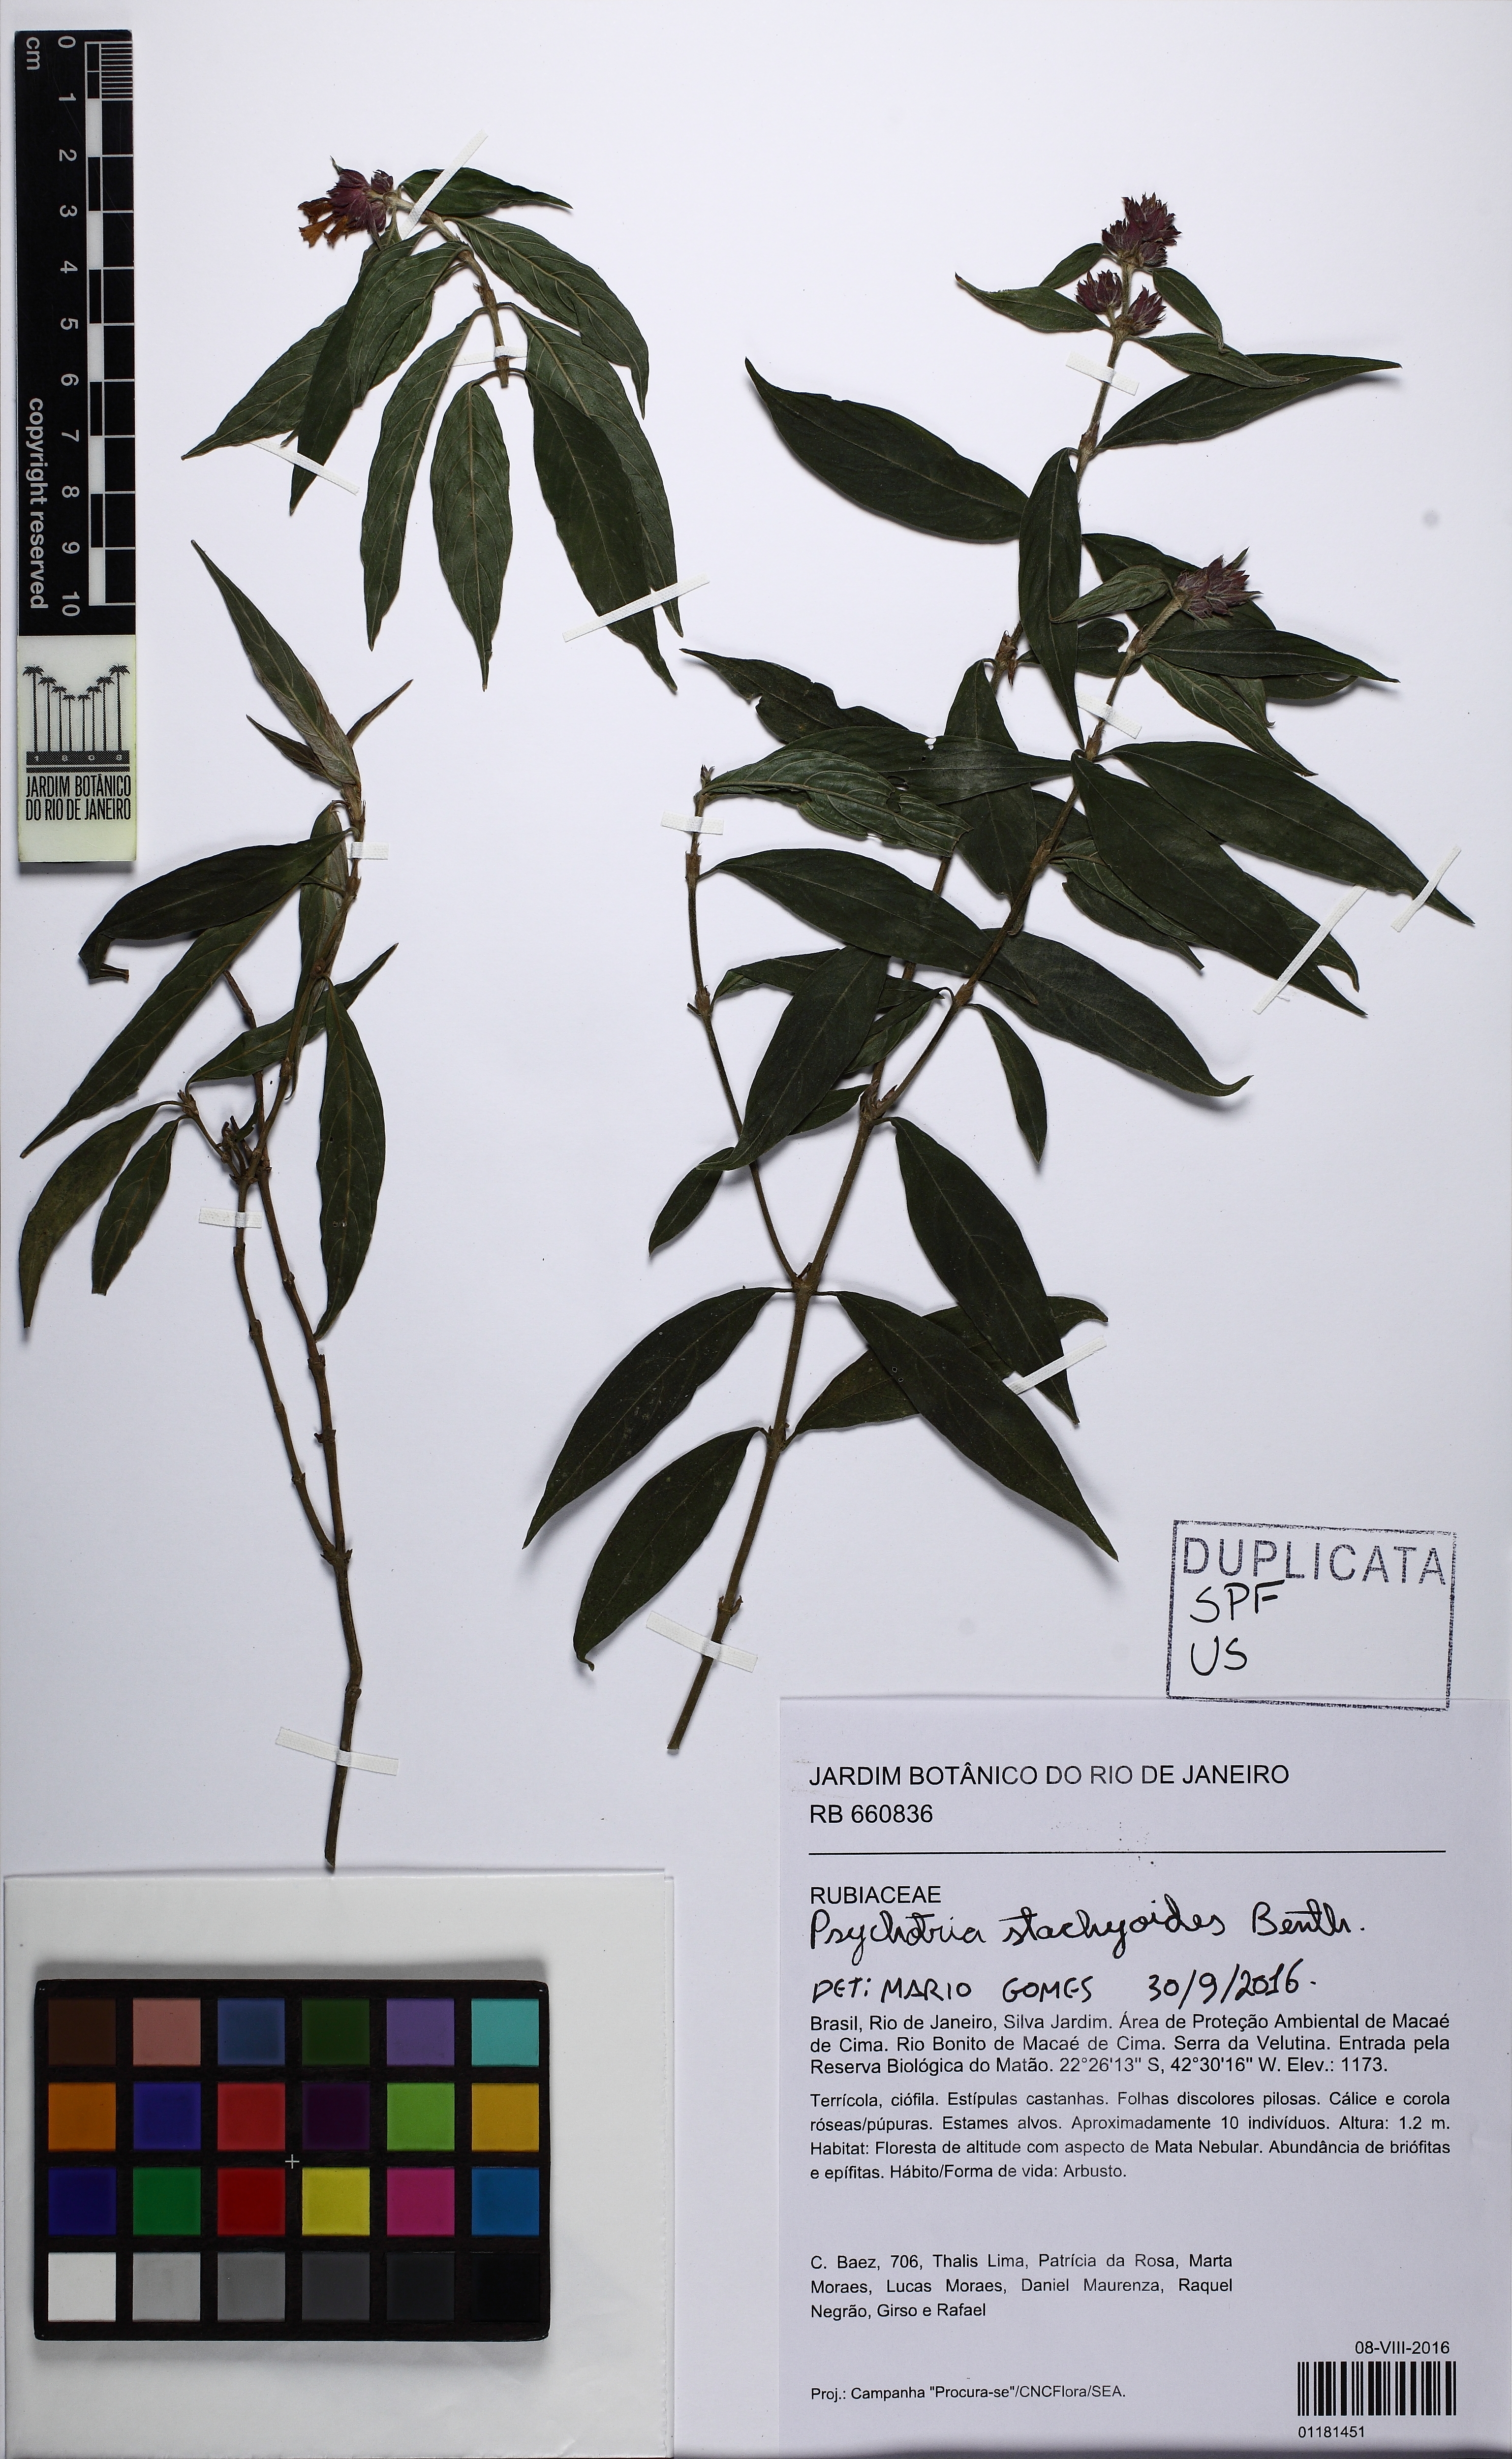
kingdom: Plantae
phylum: Tracheophyta
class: Magnoliopsida
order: Gentianales
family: Rubiaceae
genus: Psychotria
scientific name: Psychotria stachyoides
